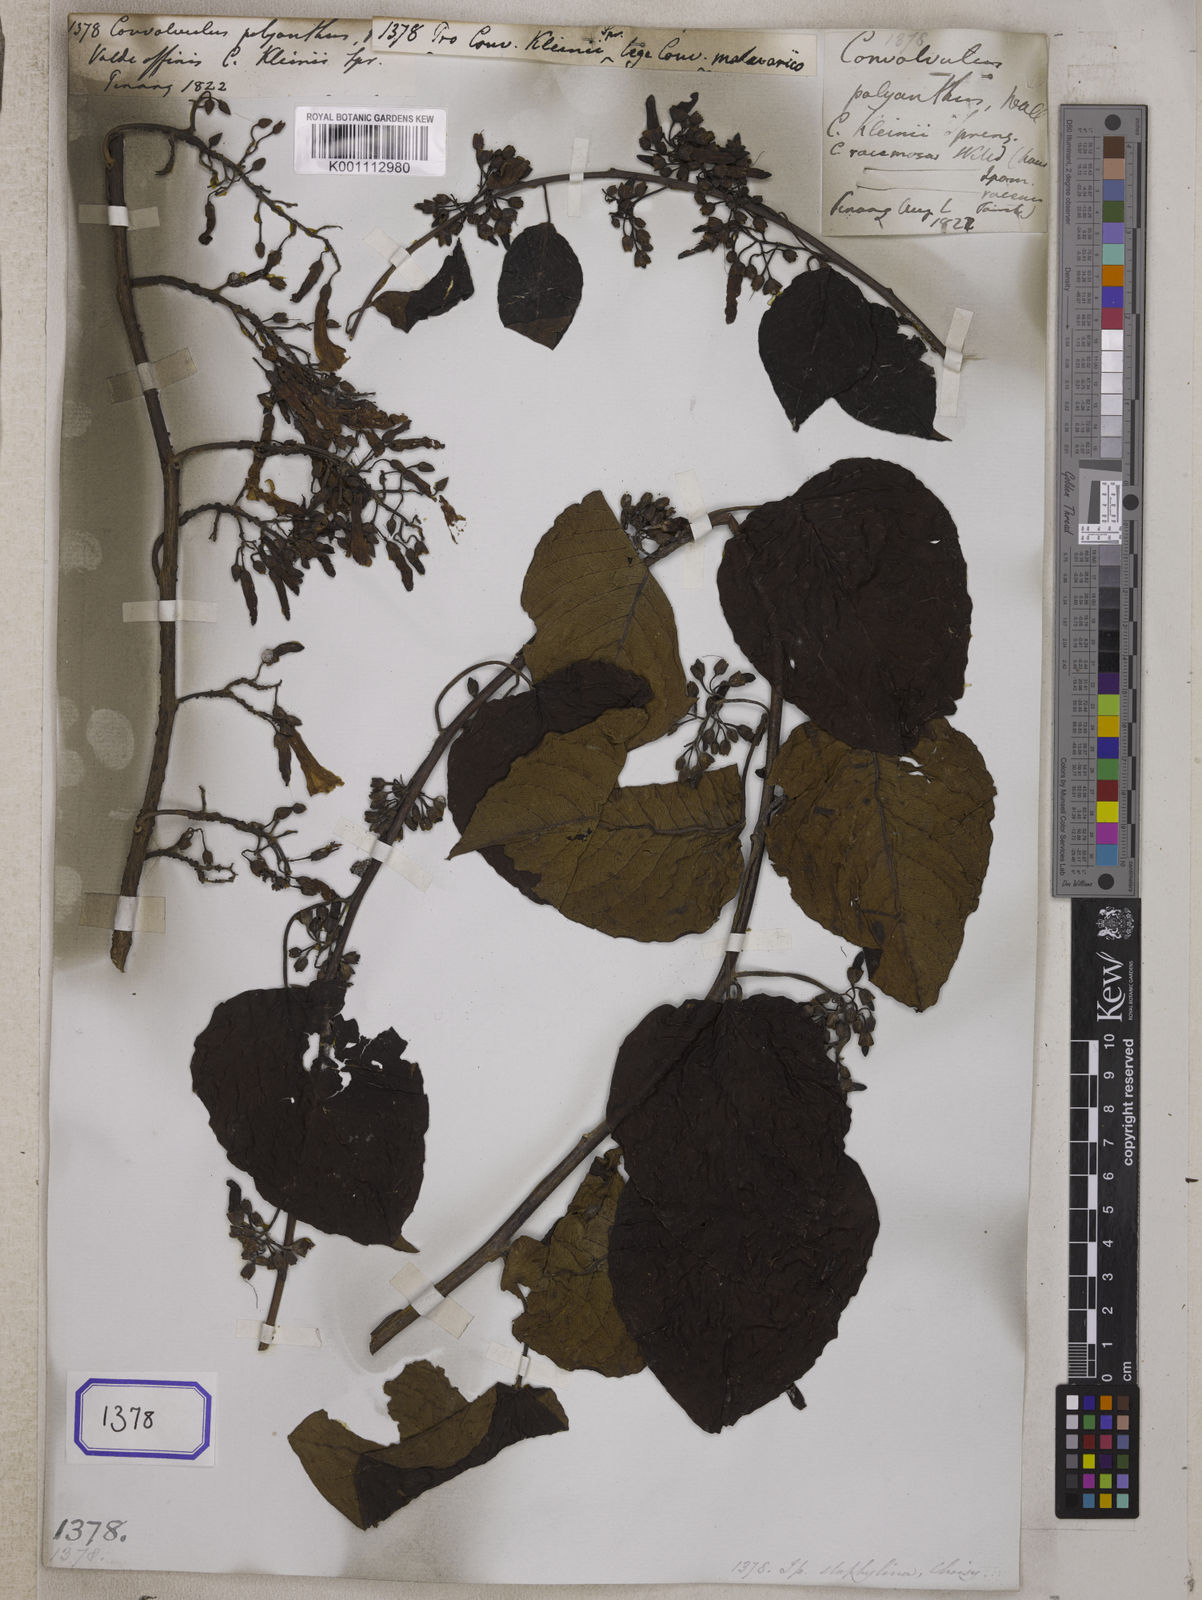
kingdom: Plantae
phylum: Tracheophyta
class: Magnoliopsida
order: Solanales
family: Convolvulaceae
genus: Convolvulus
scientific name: Convolvulus
